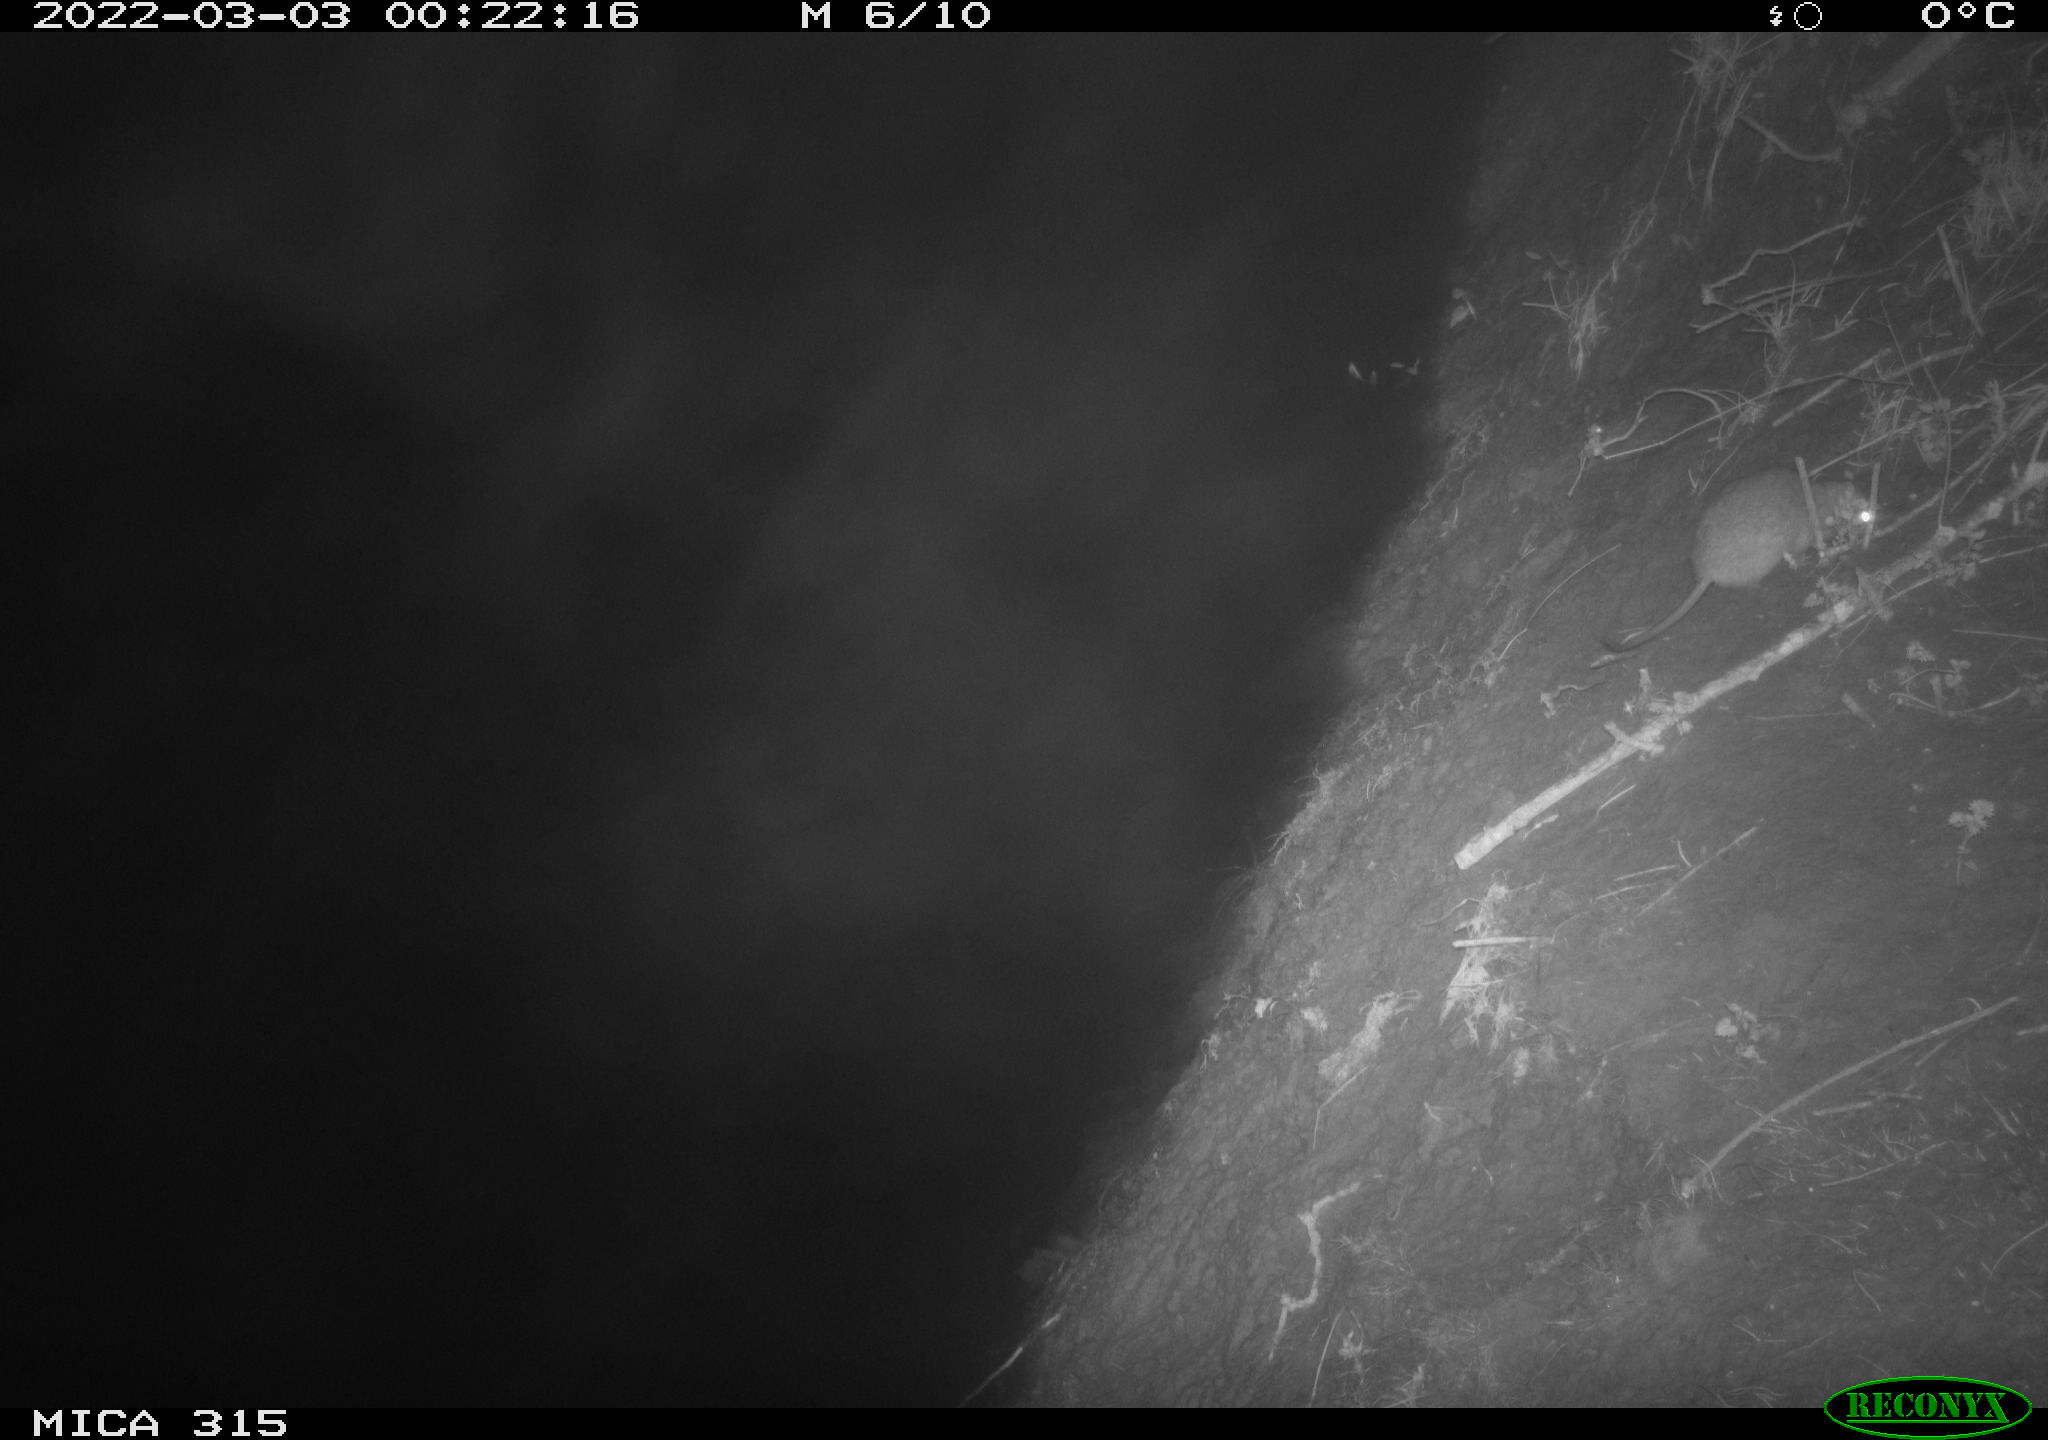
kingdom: Animalia
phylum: Chordata
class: Mammalia
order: Rodentia
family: Muridae
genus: Rattus
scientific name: Rattus norvegicus
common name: Brown rat
